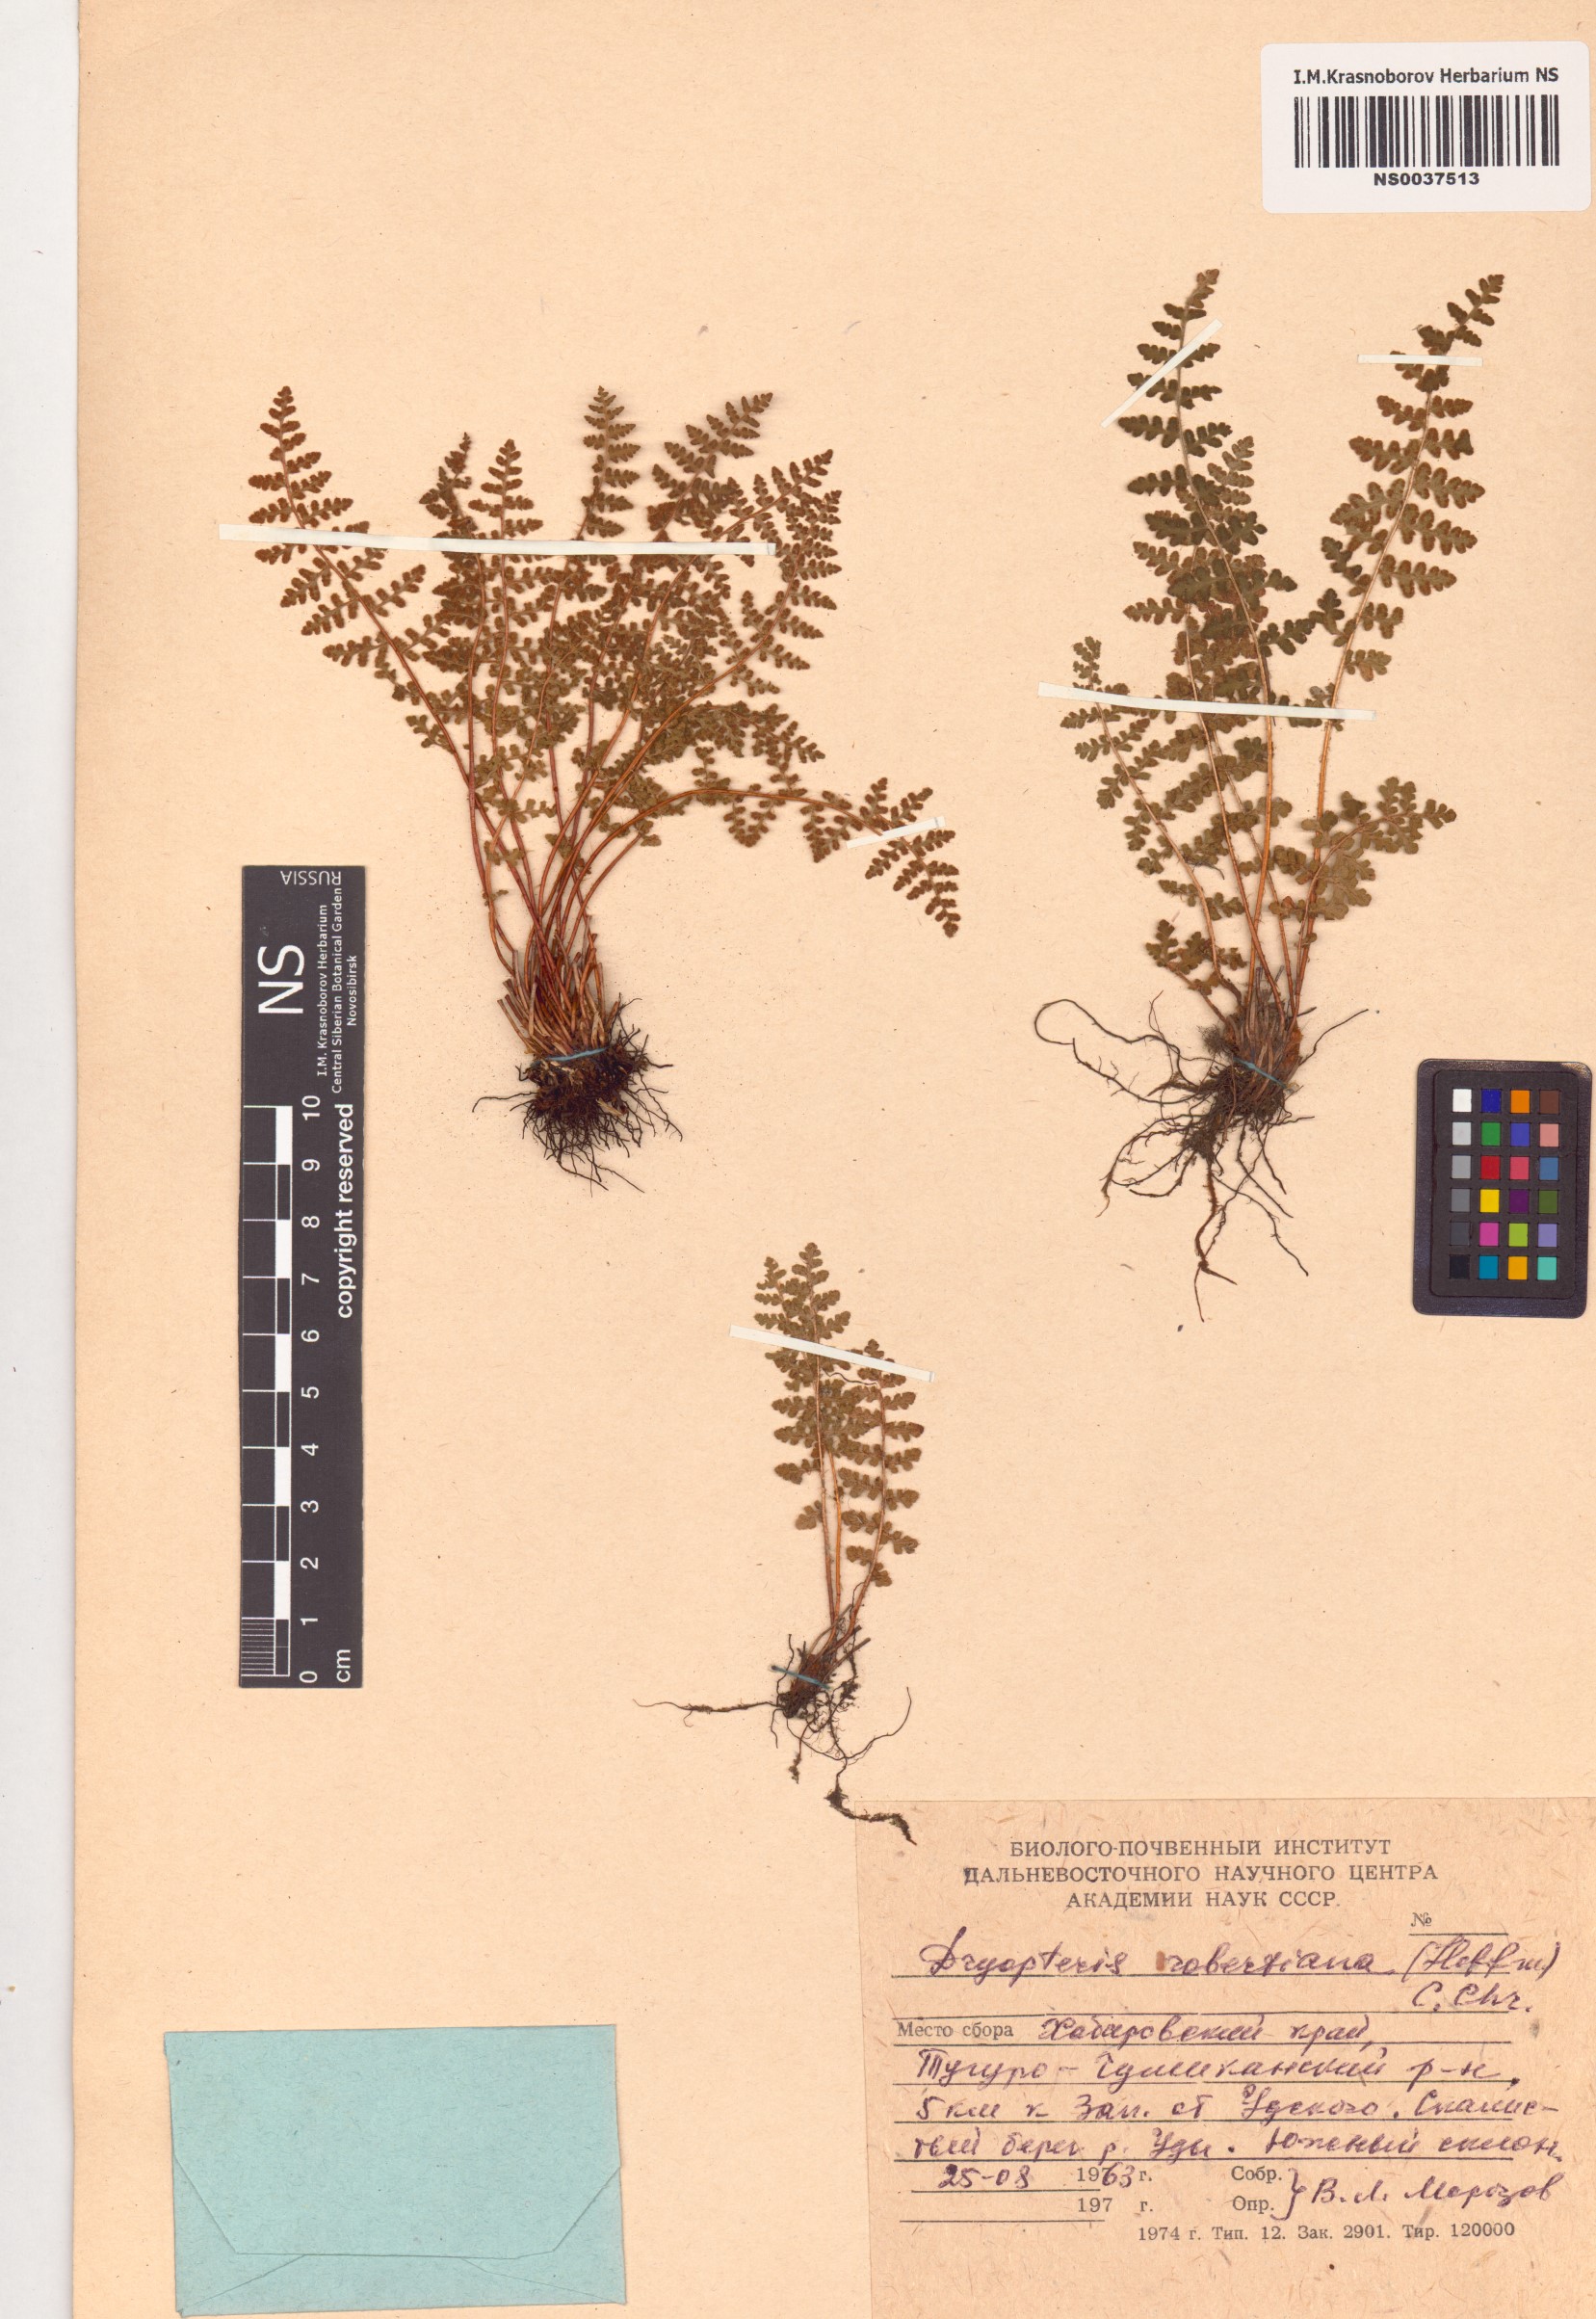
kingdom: Plantae
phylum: Tracheophyta
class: Polypodiopsida
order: Polypodiales
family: Cystopteridaceae
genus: Gymnocarpium
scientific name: Gymnocarpium robertianum
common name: Limestone fern
